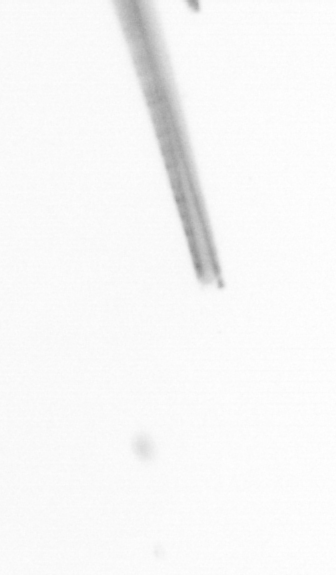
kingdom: Chromista
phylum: Ochrophyta
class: Bacillariophyceae
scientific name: Bacillariophyceae
